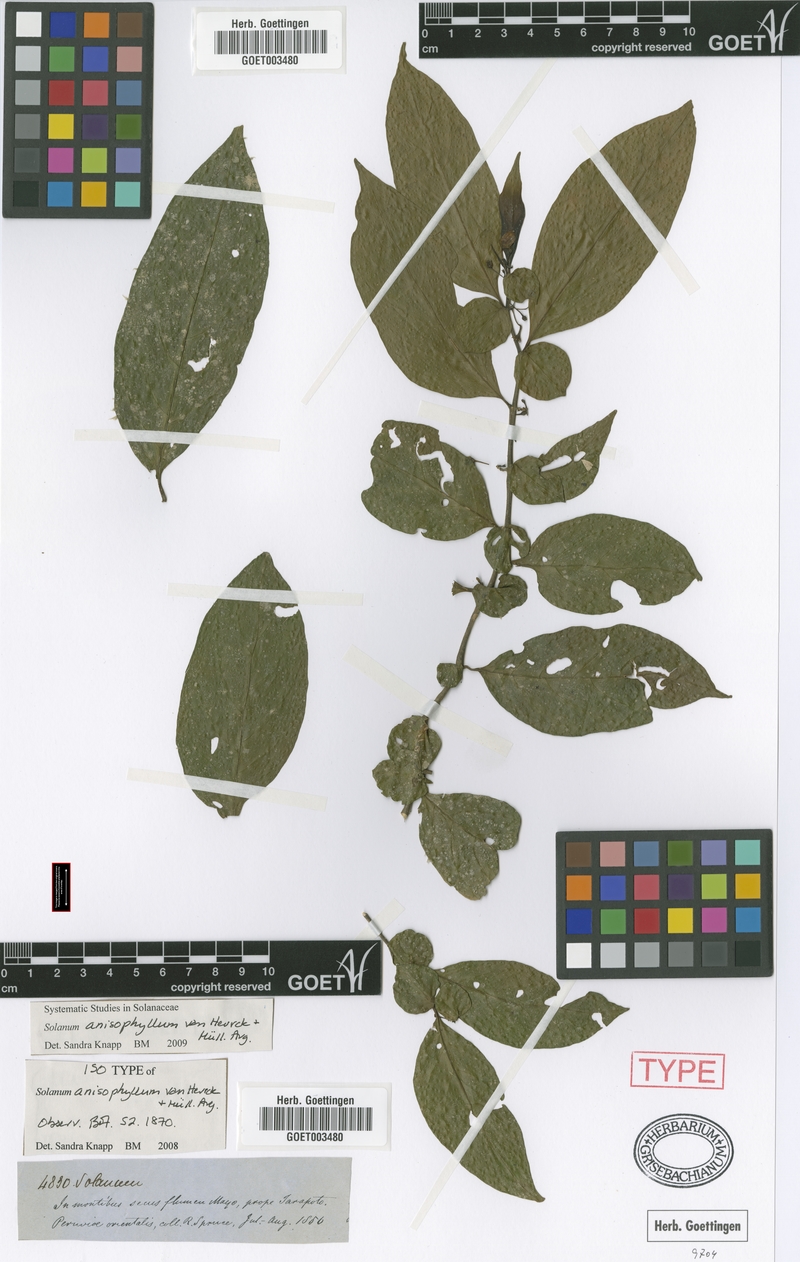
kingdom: Plantae
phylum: Tracheophyta
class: Magnoliopsida
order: Solanales
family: Solanaceae
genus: Solanum
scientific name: Solanum anisophyllum
